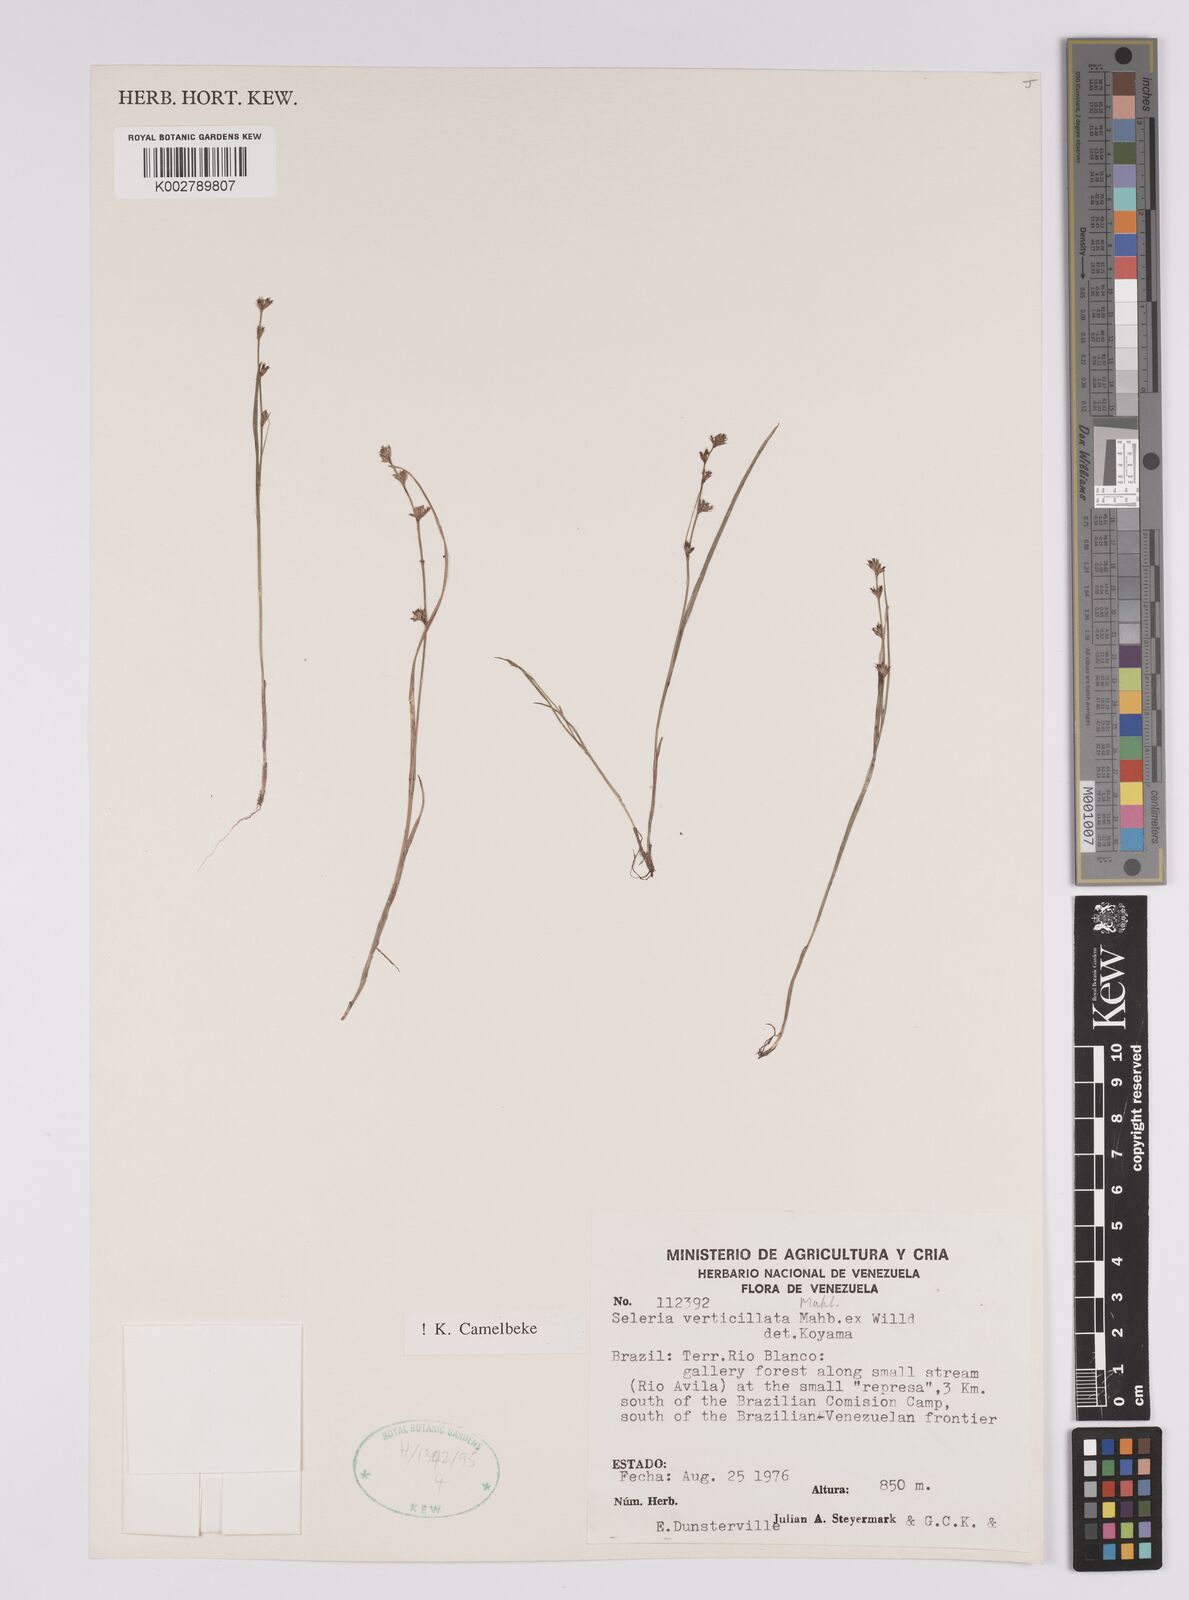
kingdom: Plantae
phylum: Tracheophyta
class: Liliopsida
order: Poales
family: Cyperaceae
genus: Scleria
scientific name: Scleria verticillata
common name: Low nutrush
